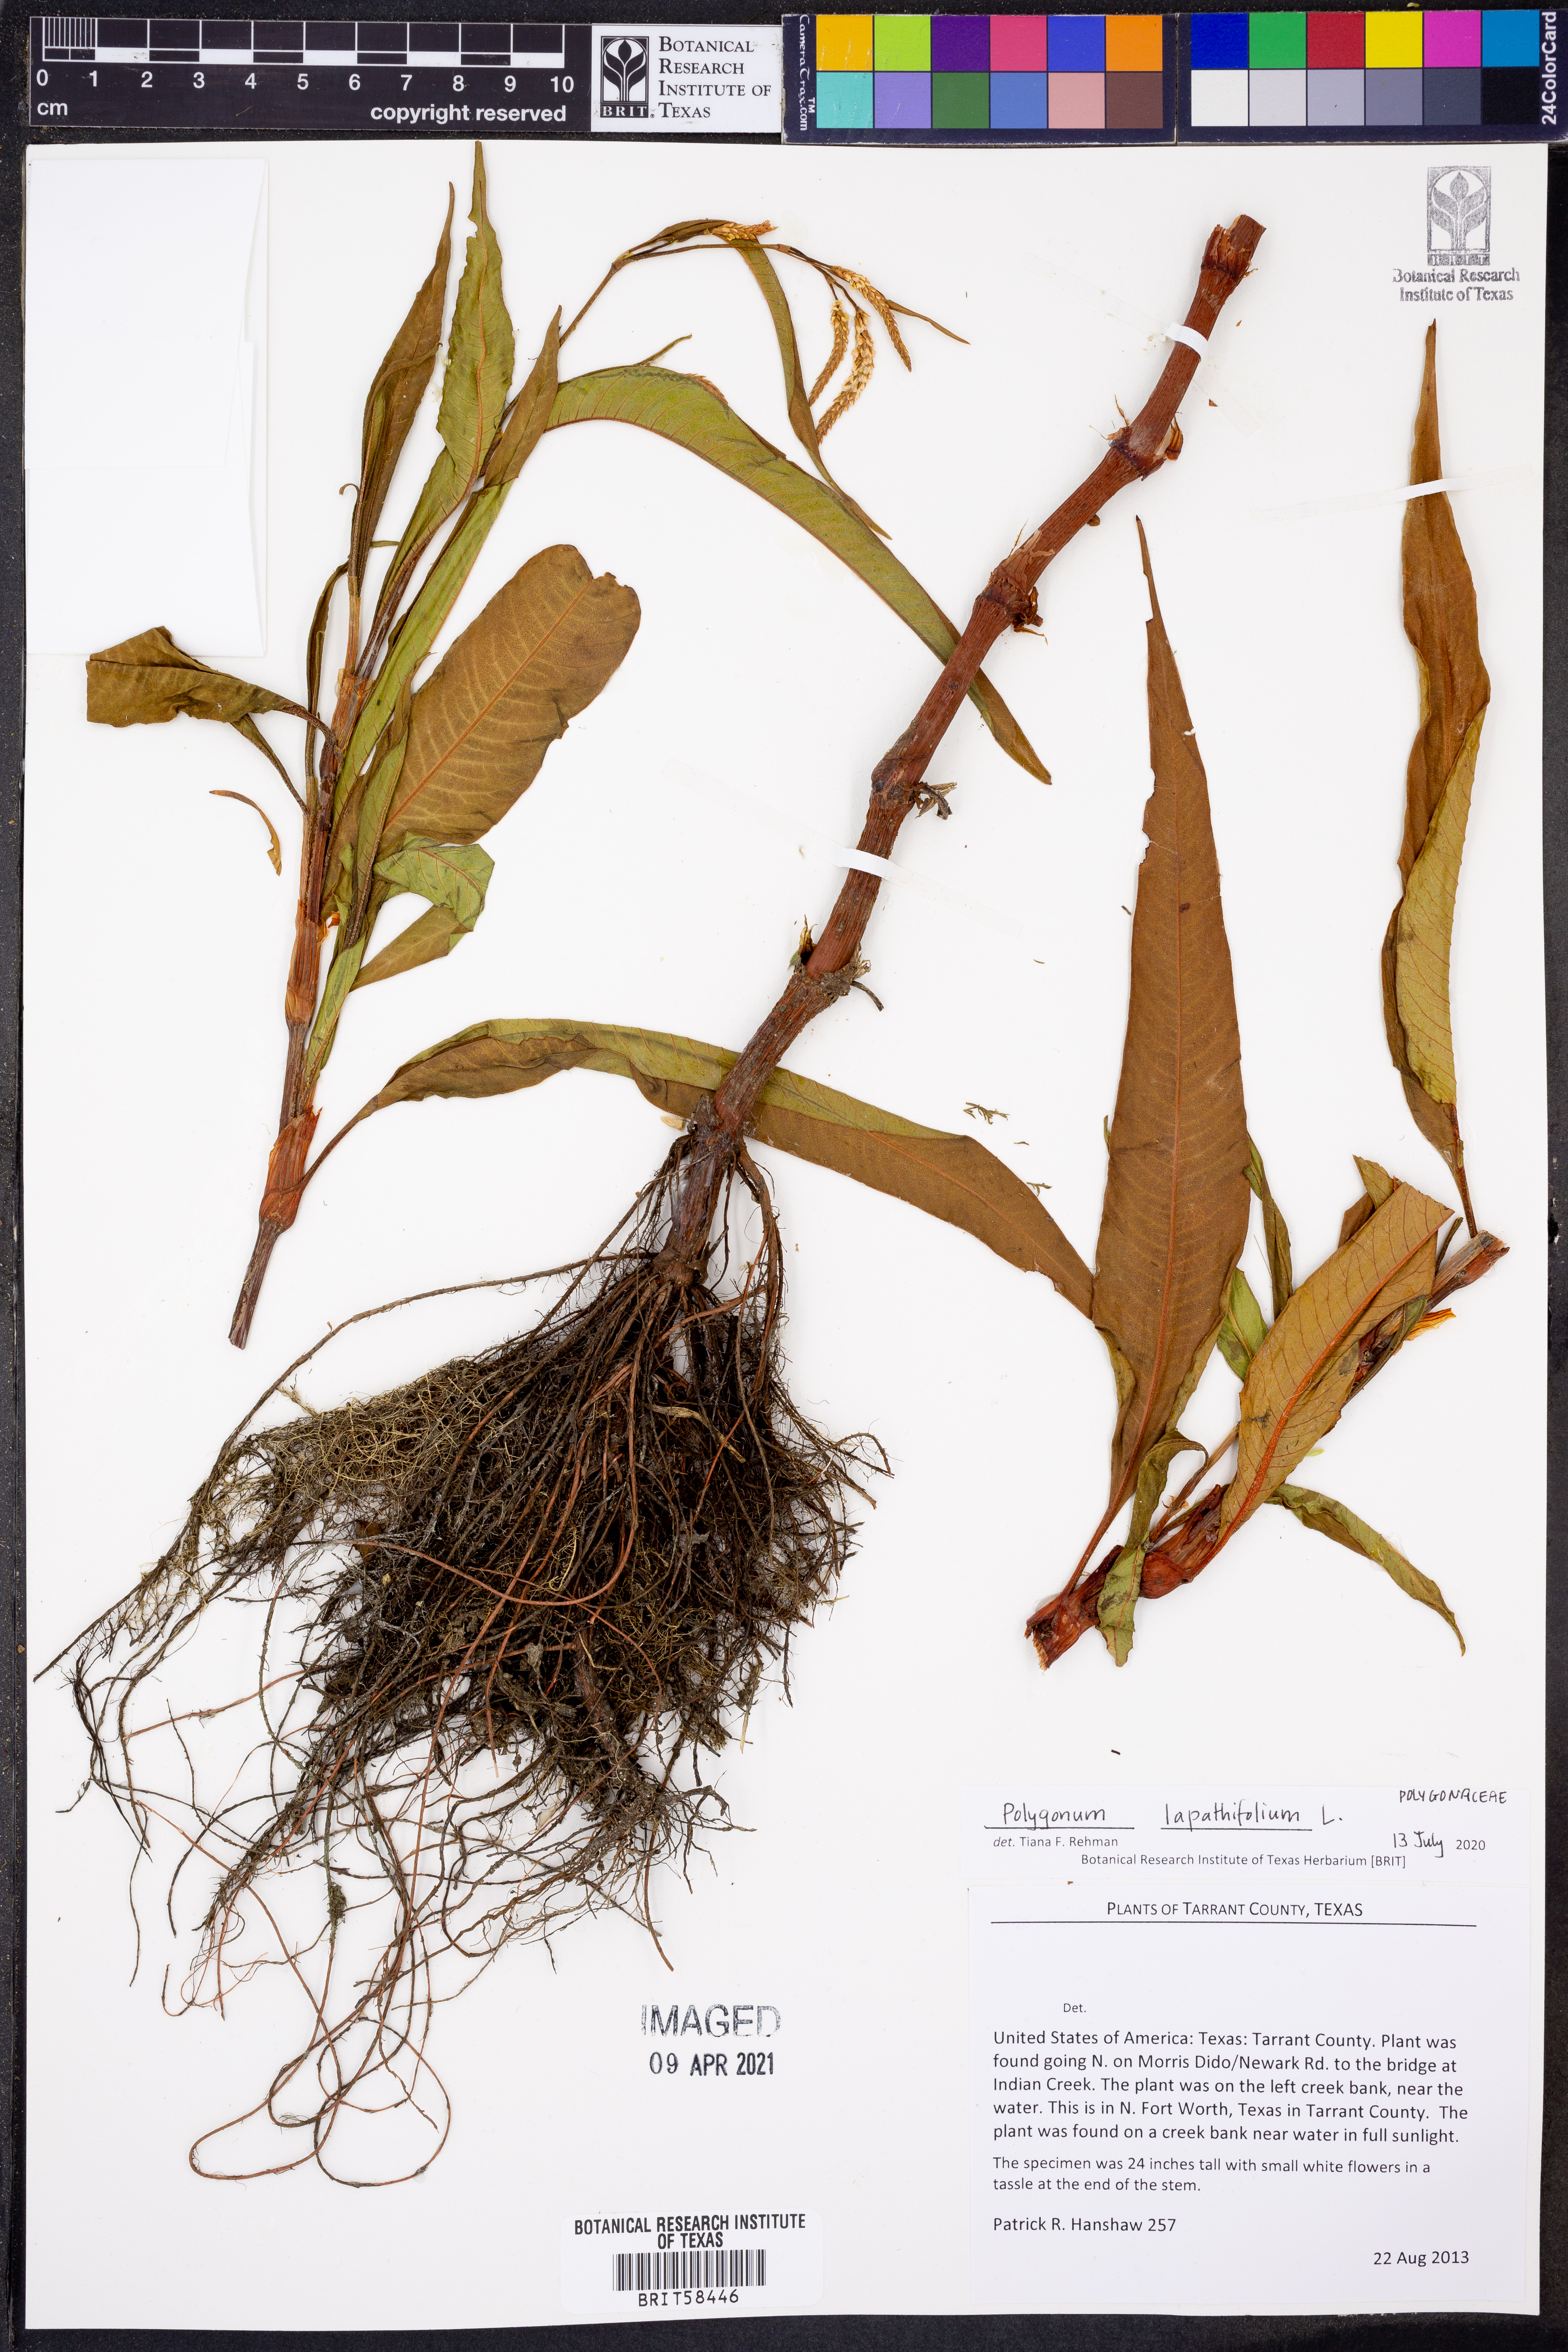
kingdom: Plantae
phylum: Tracheophyta
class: Magnoliopsida
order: Caryophyllales
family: Polygonaceae
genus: Persicaria
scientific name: Persicaria lapathifolia
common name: Curlytop knotweed
